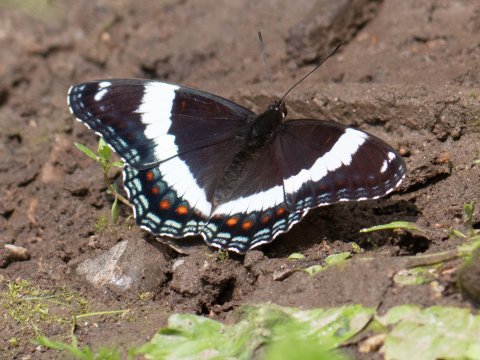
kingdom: Animalia
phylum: Arthropoda
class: Insecta
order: Lepidoptera
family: Nymphalidae
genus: Limenitis
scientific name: Limenitis arthemis
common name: Red-spotted Admiral
